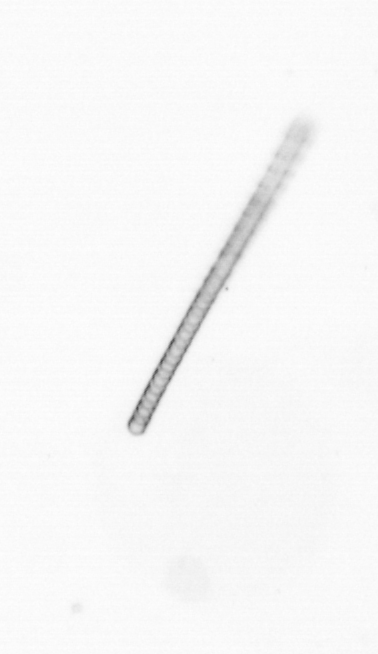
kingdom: Chromista
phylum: Ochrophyta
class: Bacillariophyceae
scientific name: Bacillariophyceae
